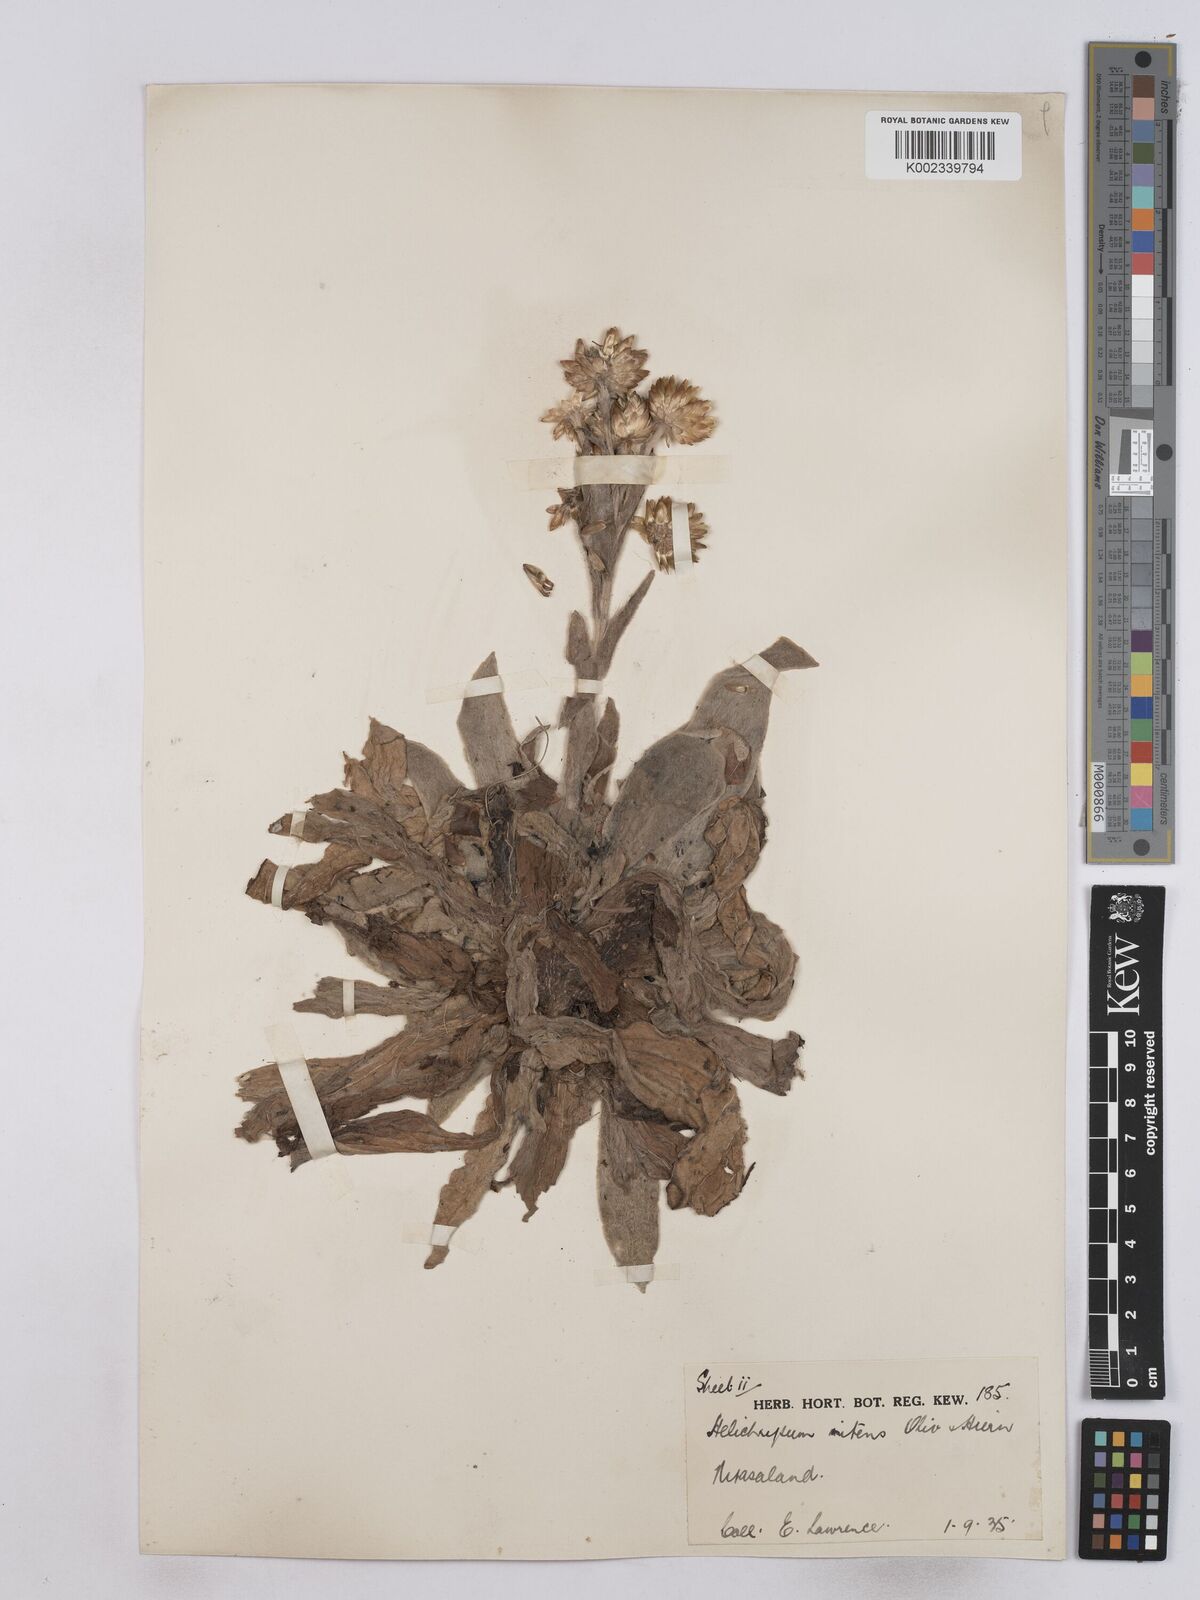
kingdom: Plantae
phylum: Tracheophyta
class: Magnoliopsida
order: Asterales
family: Asteraceae
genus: Helichrysum
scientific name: Helichrysum nitens
